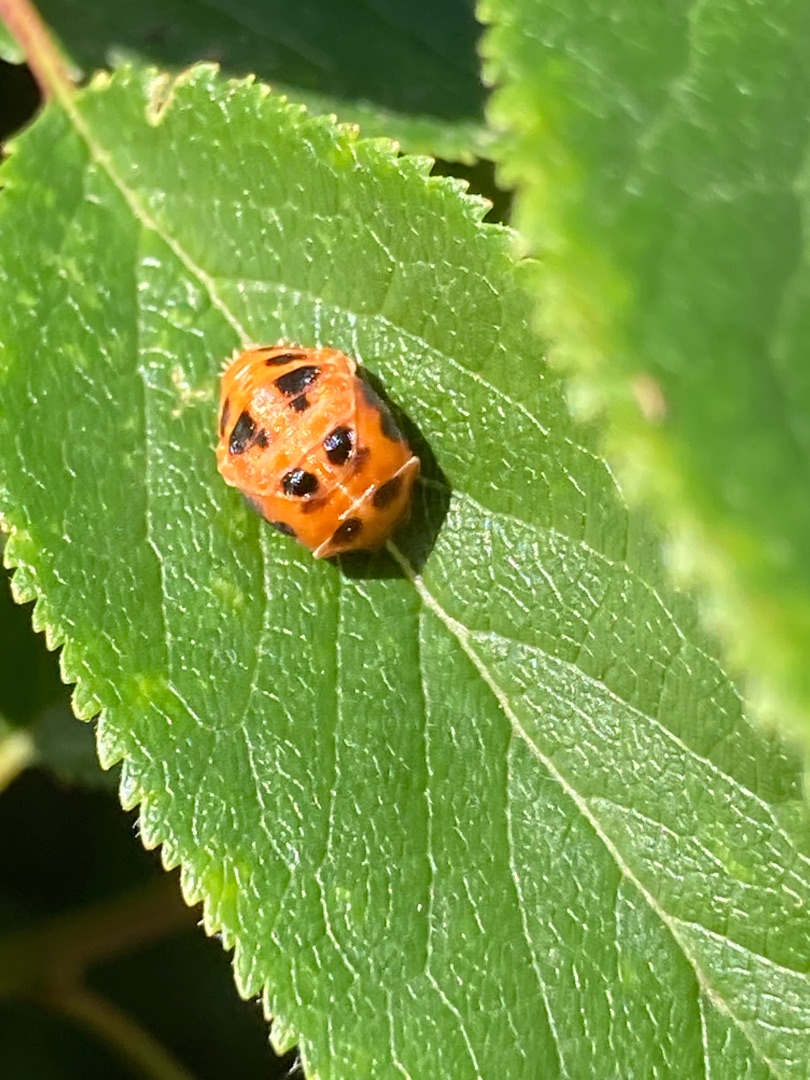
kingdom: Animalia
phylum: Arthropoda
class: Insecta
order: Coleoptera
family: Coccinellidae
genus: Harmonia
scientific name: Harmonia axyridis
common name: Harlekinmariehøne
